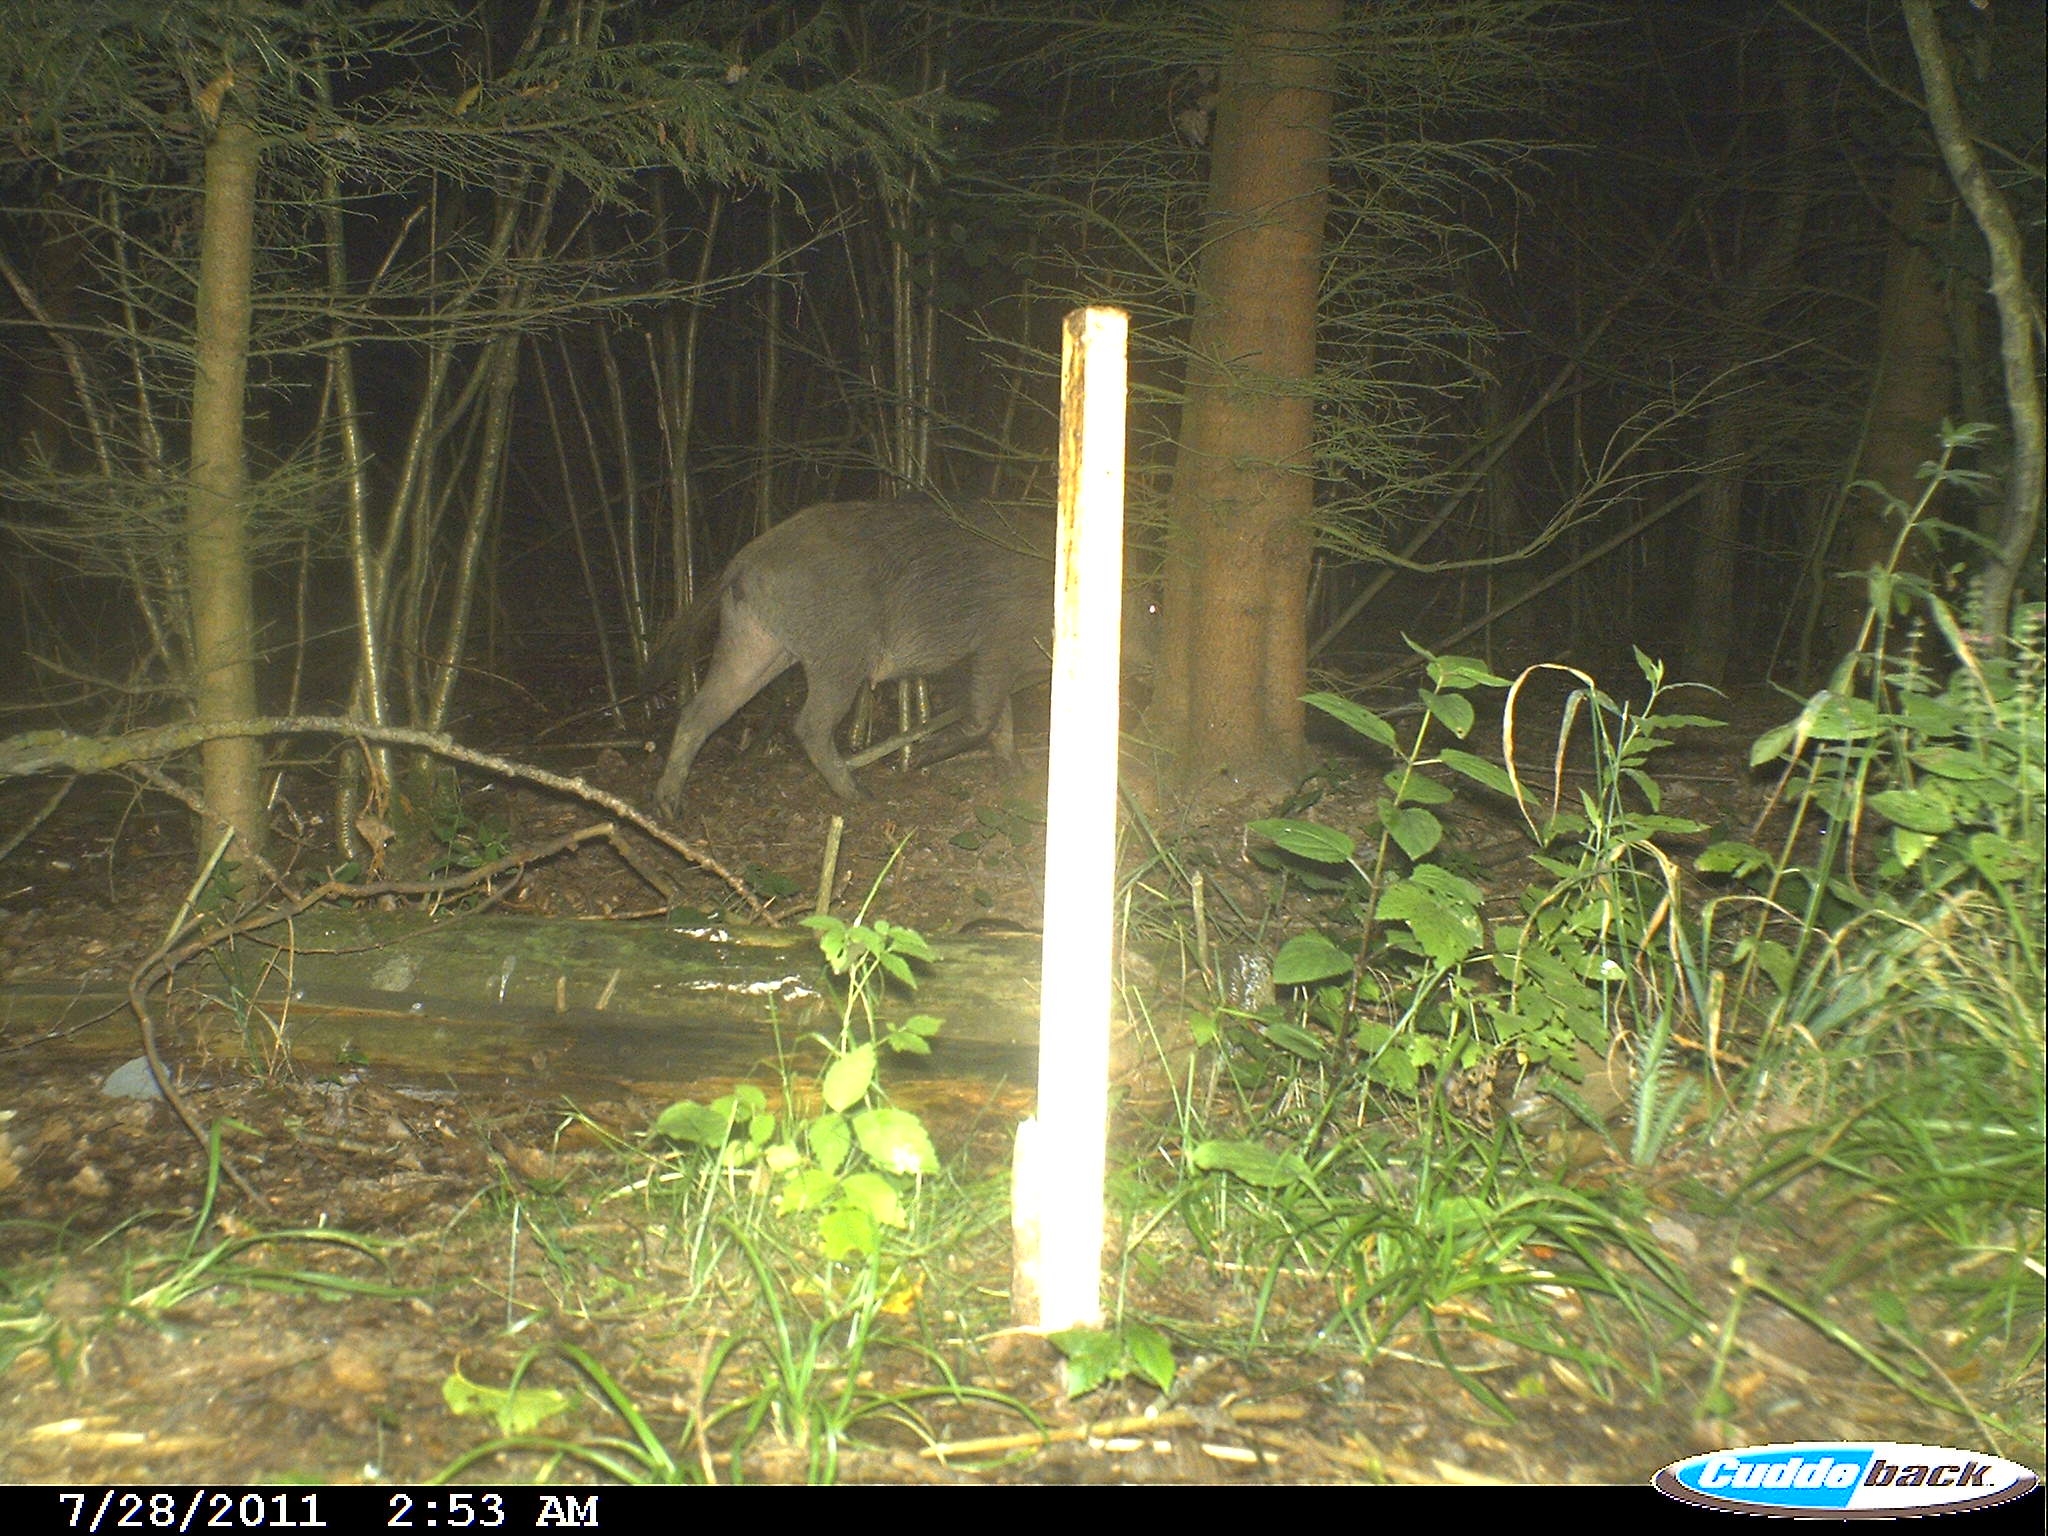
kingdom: Animalia
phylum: Chordata
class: Mammalia
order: Artiodactyla
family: Suidae
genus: Sus
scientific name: Sus scrofa
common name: Wild boar
